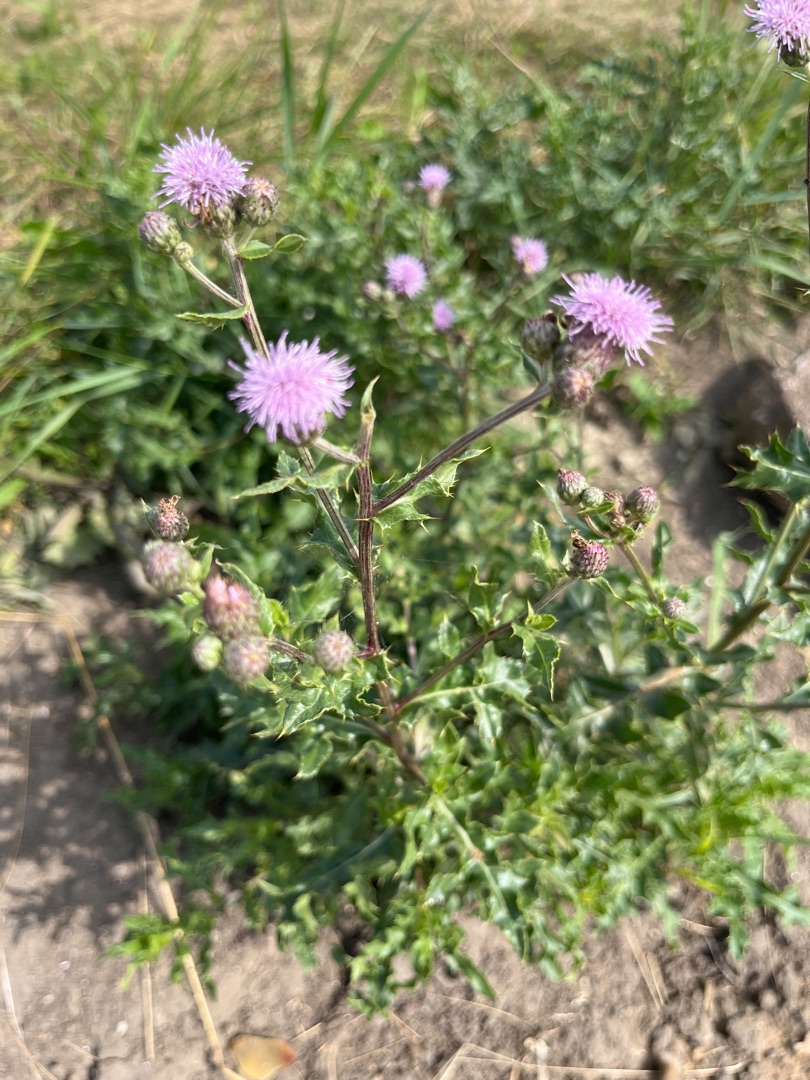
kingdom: Plantae
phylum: Tracheophyta
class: Magnoliopsida
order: Asterales
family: Asteraceae
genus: Cirsium
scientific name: Cirsium arvense
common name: Ager-tidsel
